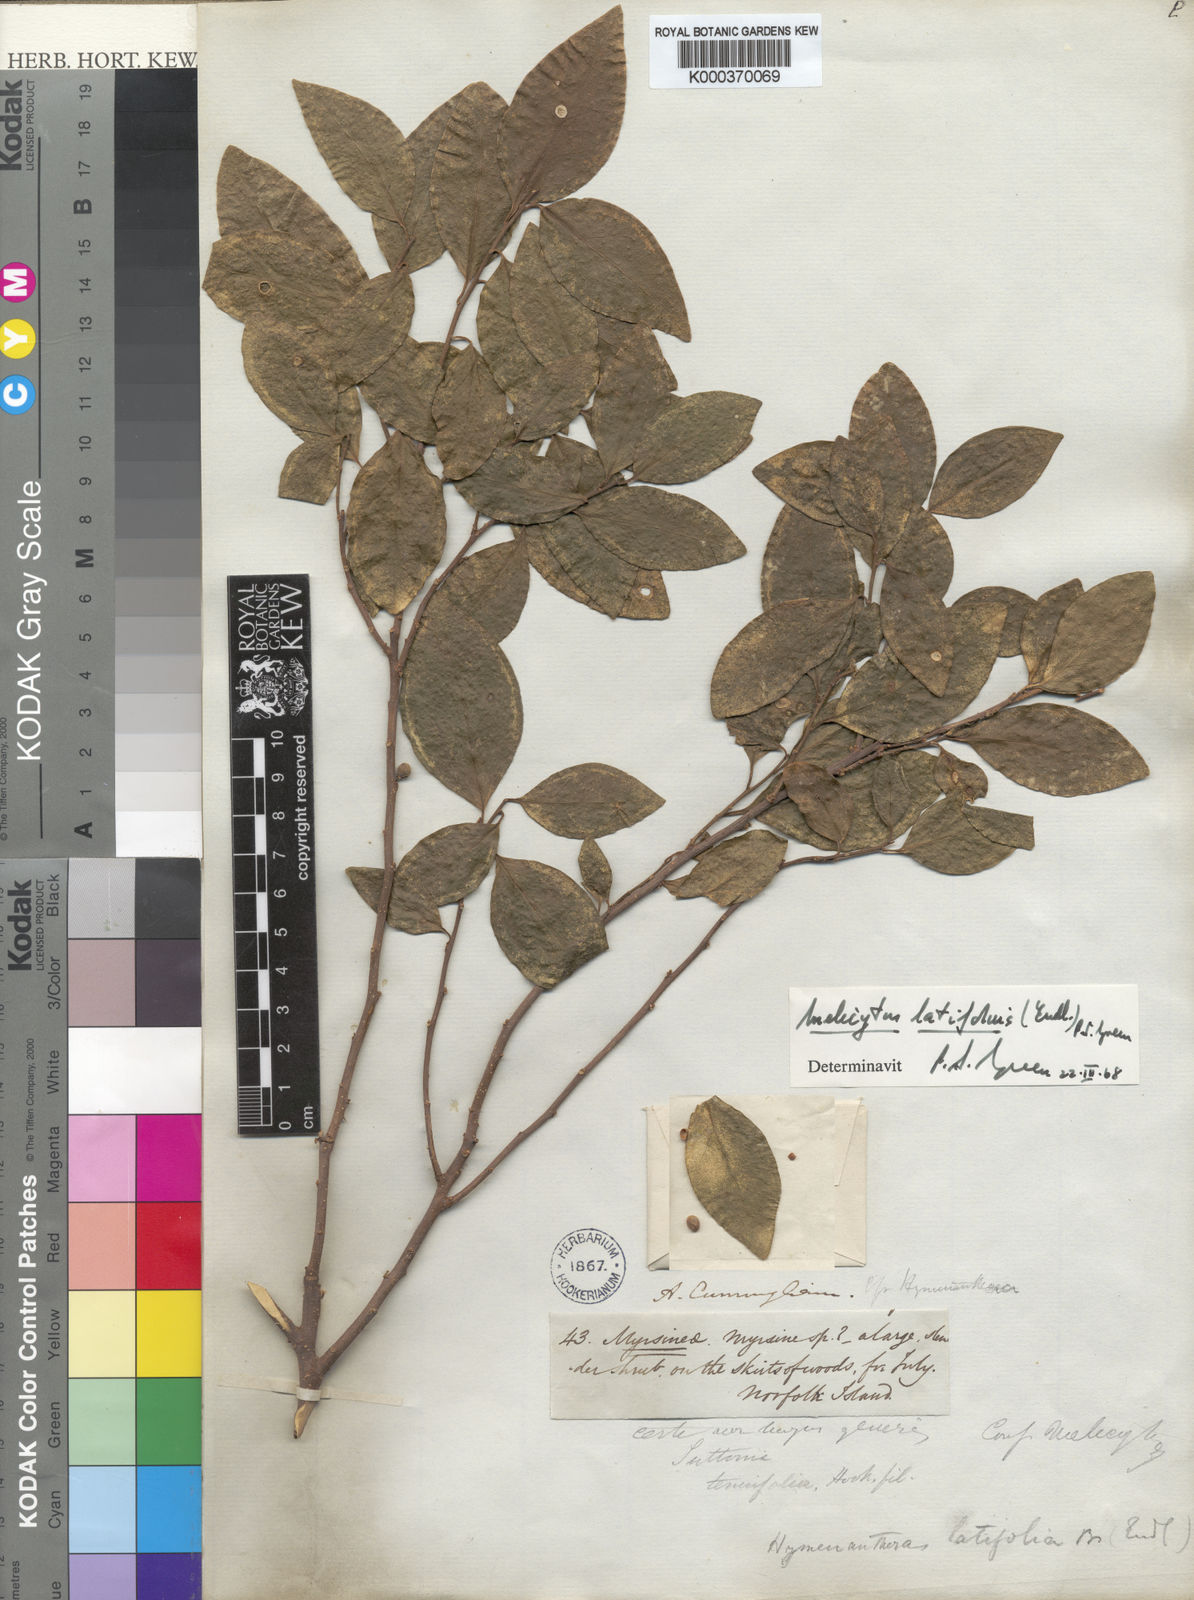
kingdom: Plantae
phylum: Tracheophyta
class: Magnoliopsida
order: Malpighiales
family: Violaceae
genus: Melicytus
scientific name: Melicytus latifolius
